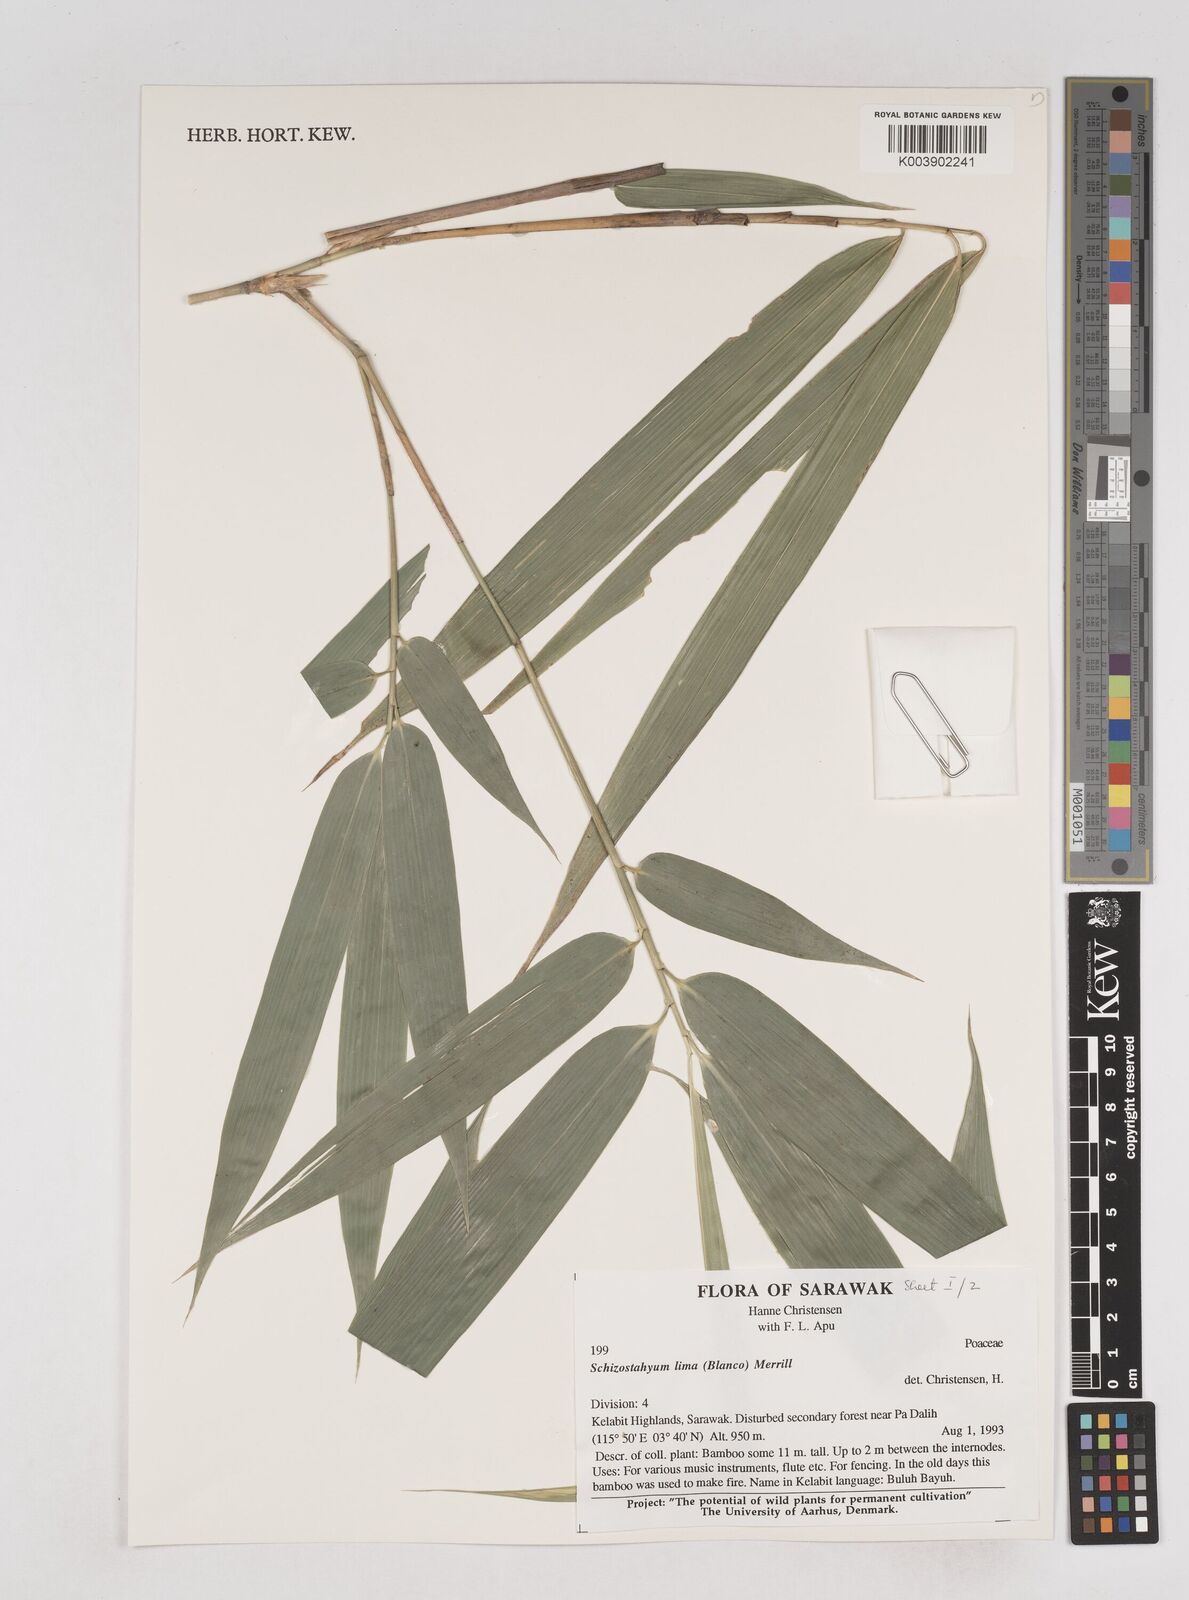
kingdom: Plantae
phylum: Tracheophyta
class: Liliopsida
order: Poales
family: Poaceae
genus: Schizostachyum
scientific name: Schizostachyum lima
